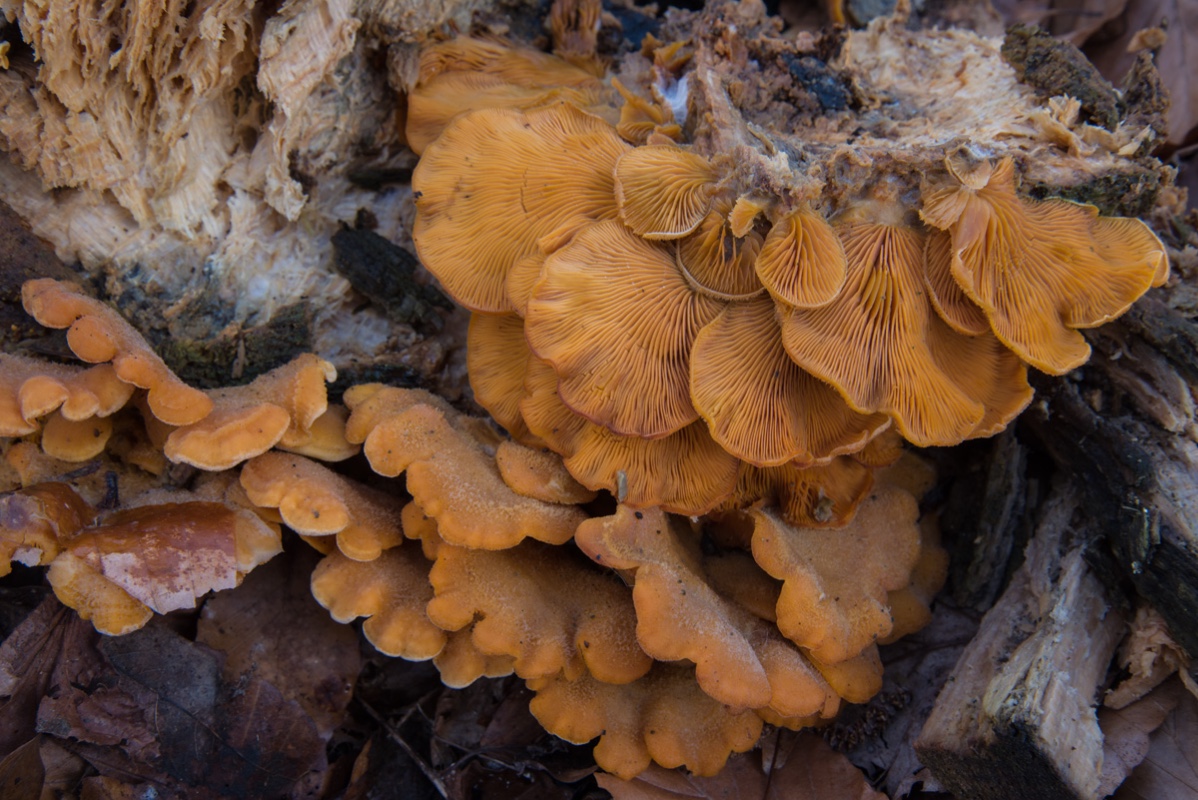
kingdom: Fungi
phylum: Basidiomycota
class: Agaricomycetes
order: Agaricales
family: Phyllotopsidaceae
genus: Phyllotopsis
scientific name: Phyllotopsis nidulans
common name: okkerblad
